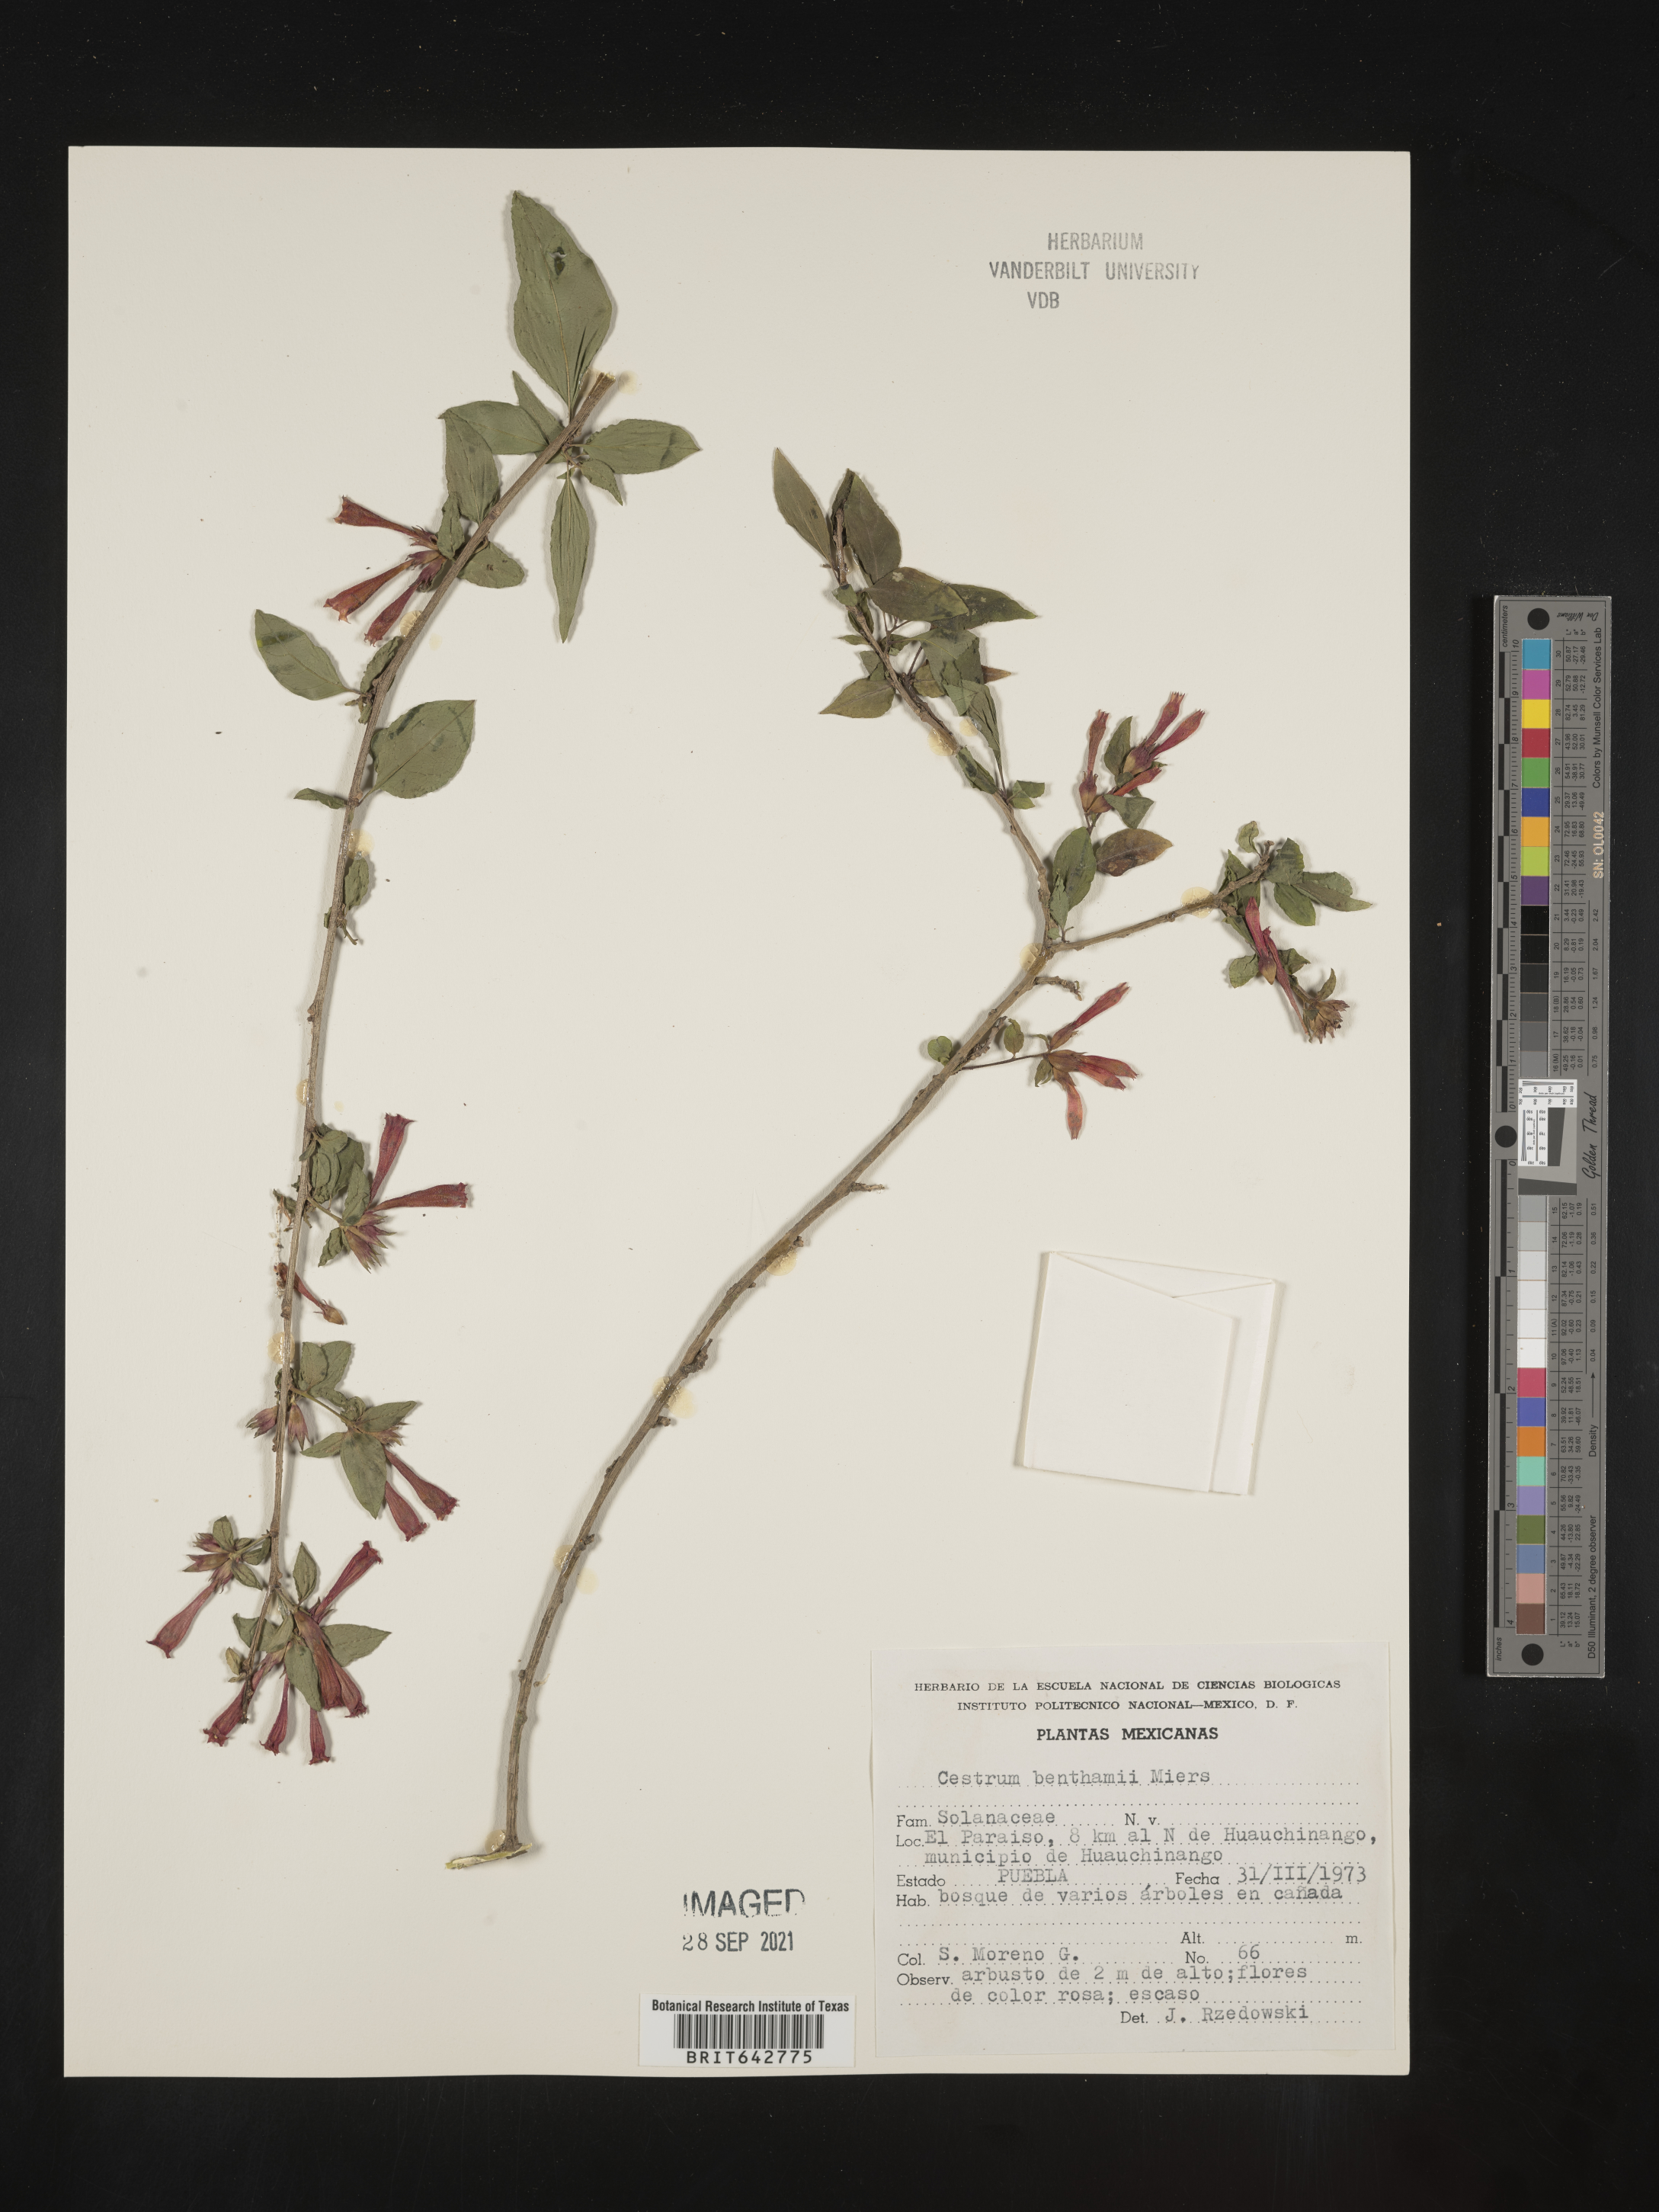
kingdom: Plantae
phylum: Tracheophyta
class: Magnoliopsida
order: Solanales
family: Solanaceae
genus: Cestrum
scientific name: Cestrum
